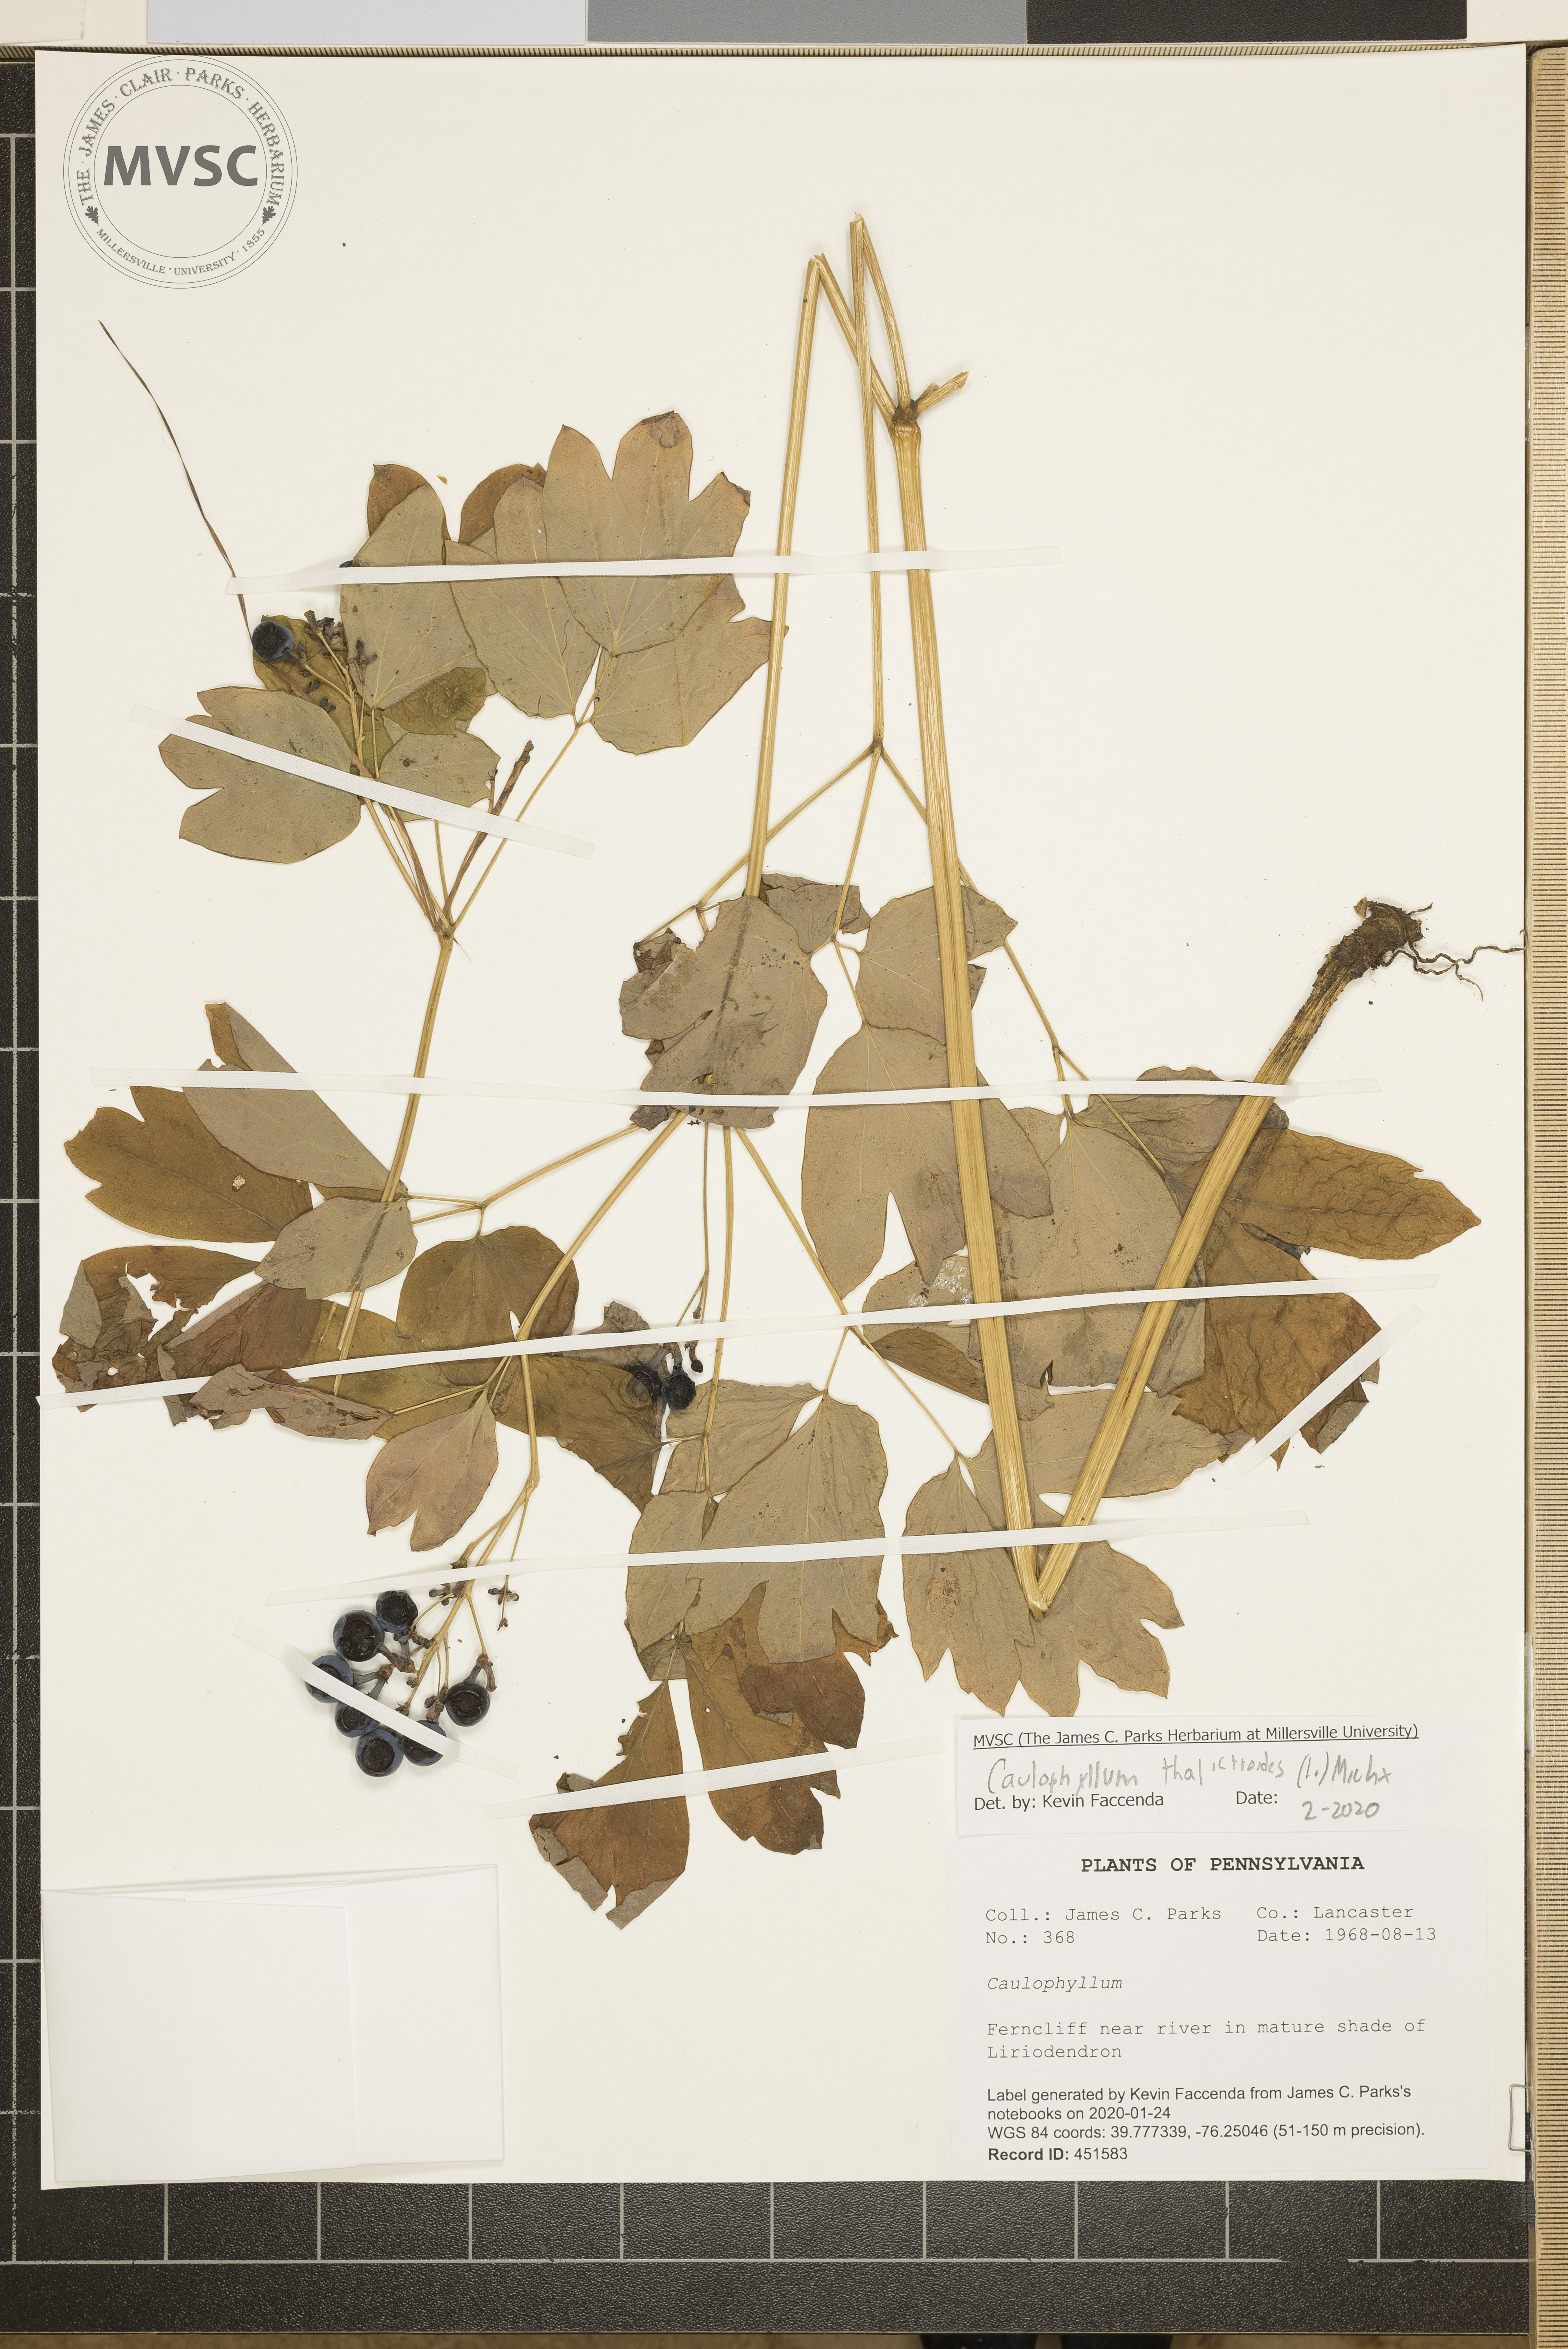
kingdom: Plantae
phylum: Tracheophyta
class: Magnoliopsida
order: Ranunculales
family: Berberidaceae
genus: Caulophyllum
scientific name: Caulophyllum thalictroides
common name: Blue cohosh
